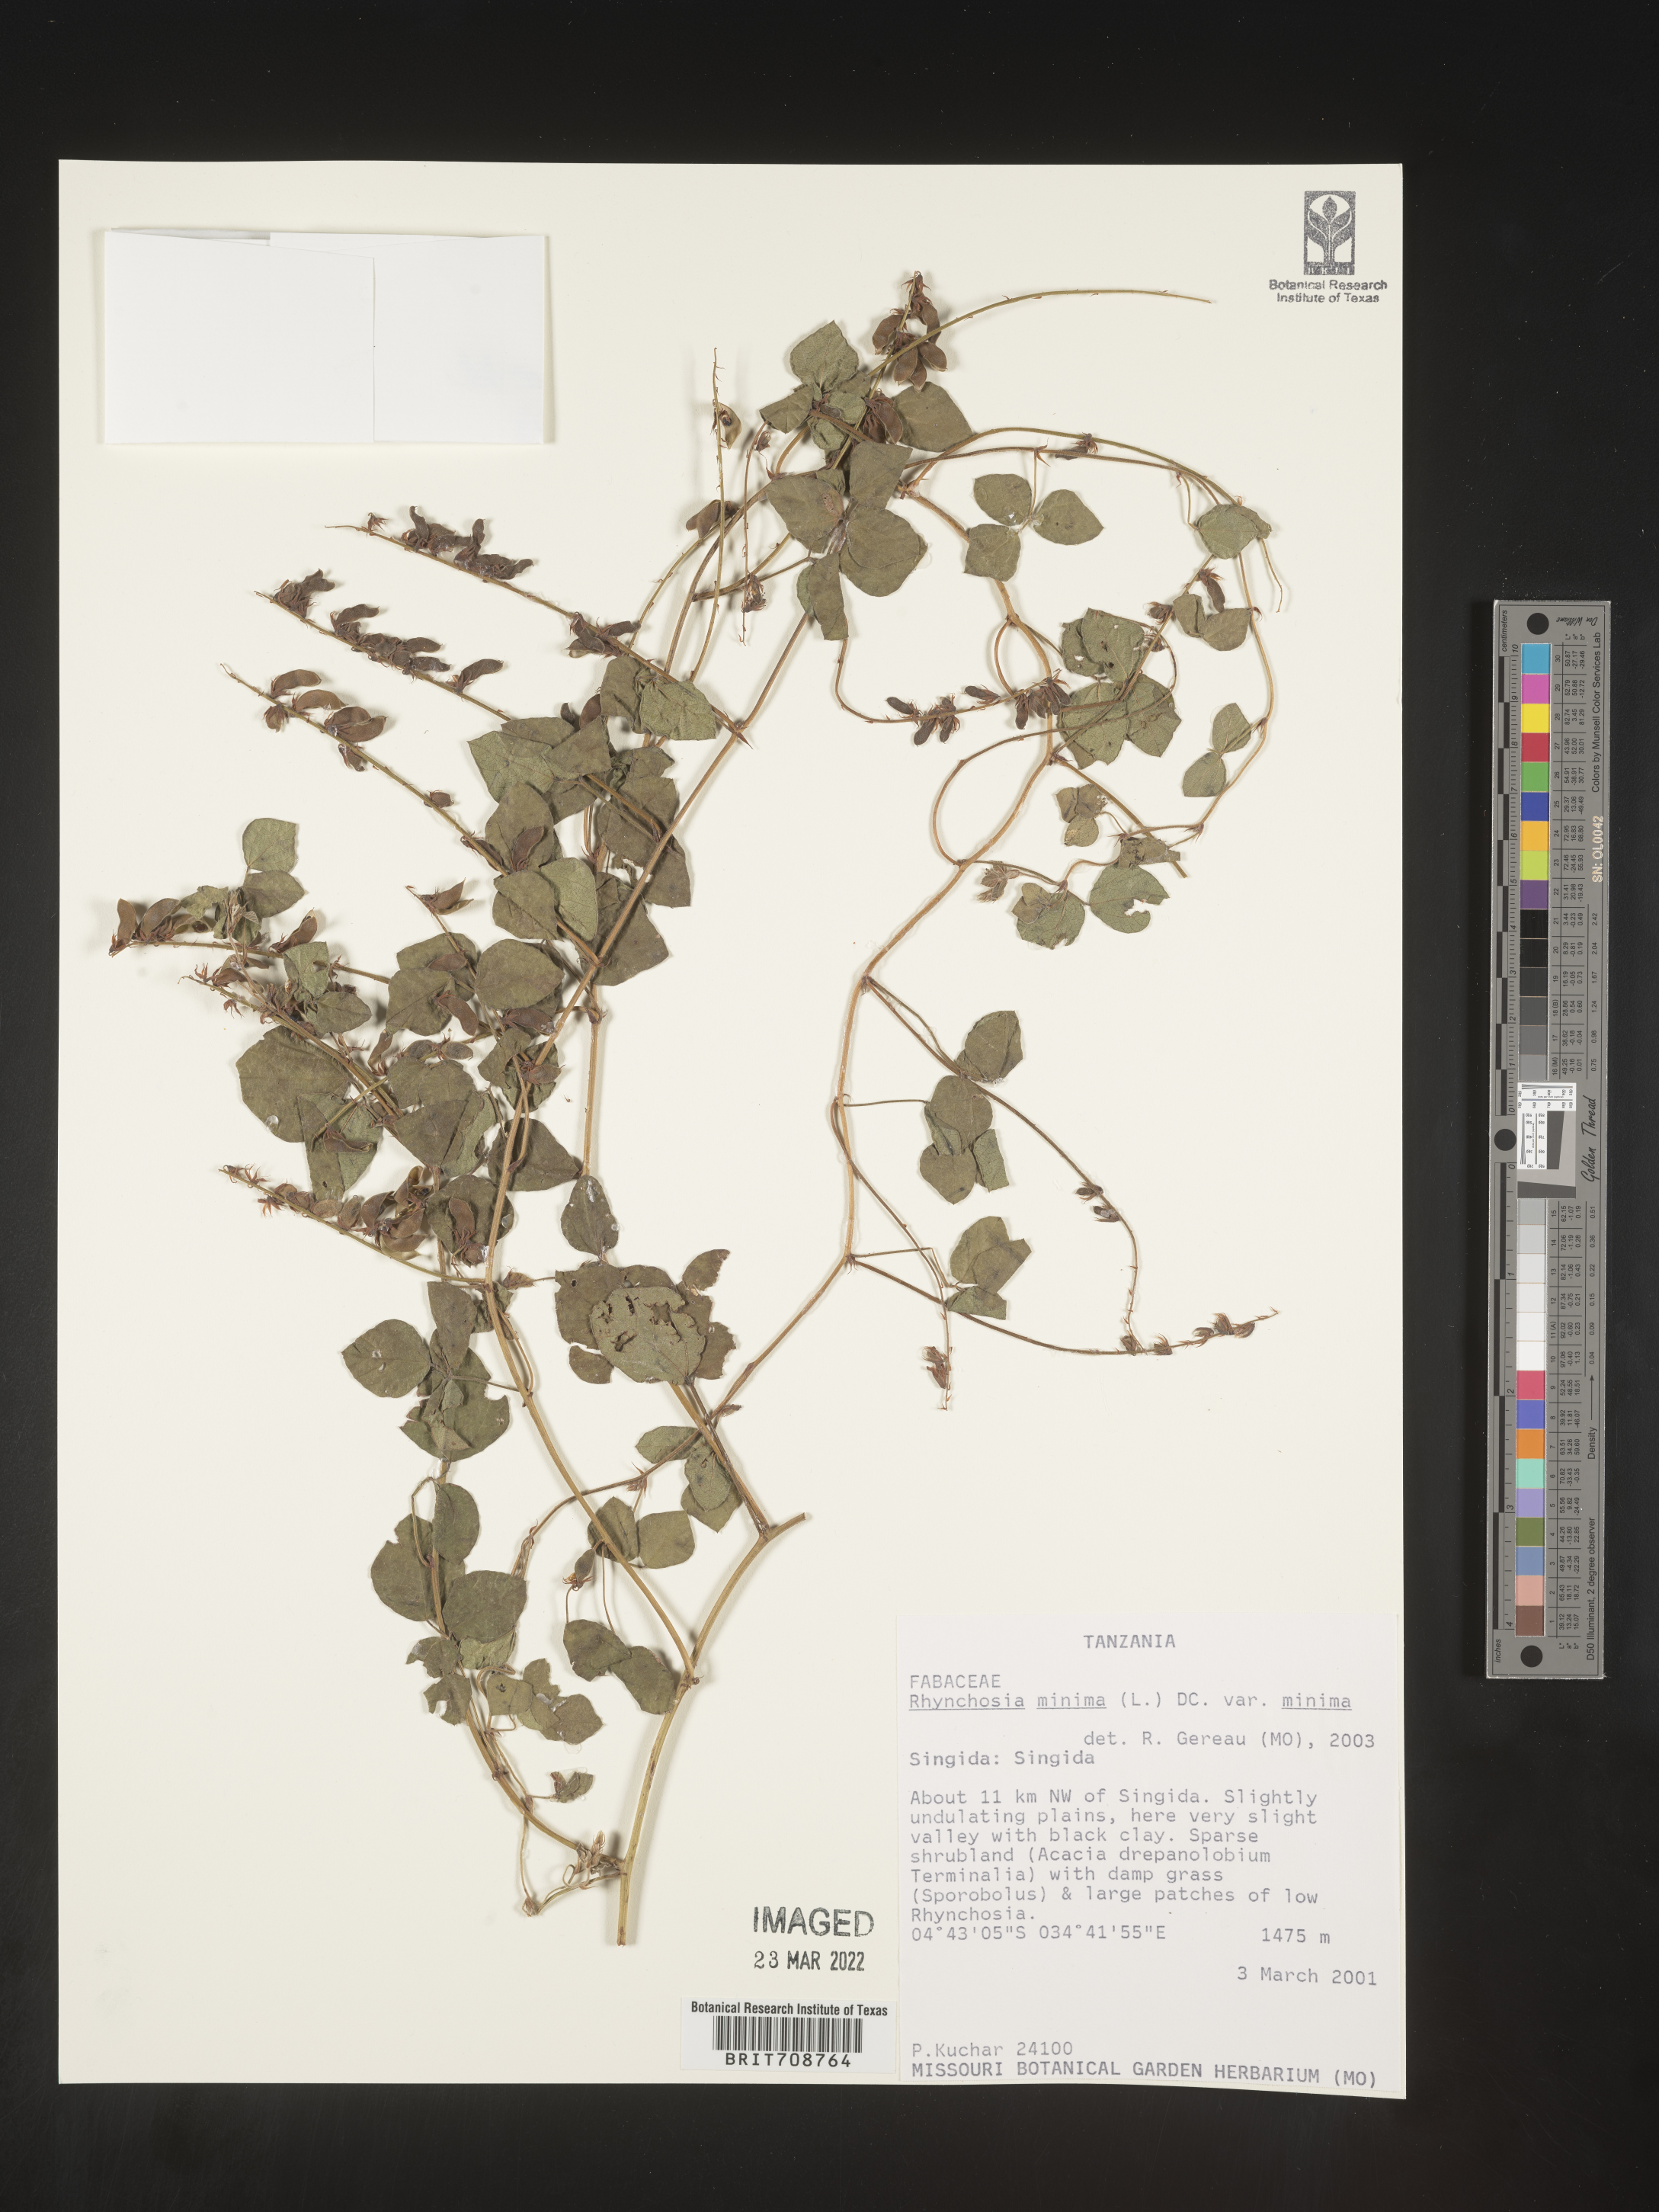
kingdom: Plantae
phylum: Tracheophyta
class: Magnoliopsida
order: Fabales
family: Fabaceae
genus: Rhynchosia
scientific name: Rhynchosia
